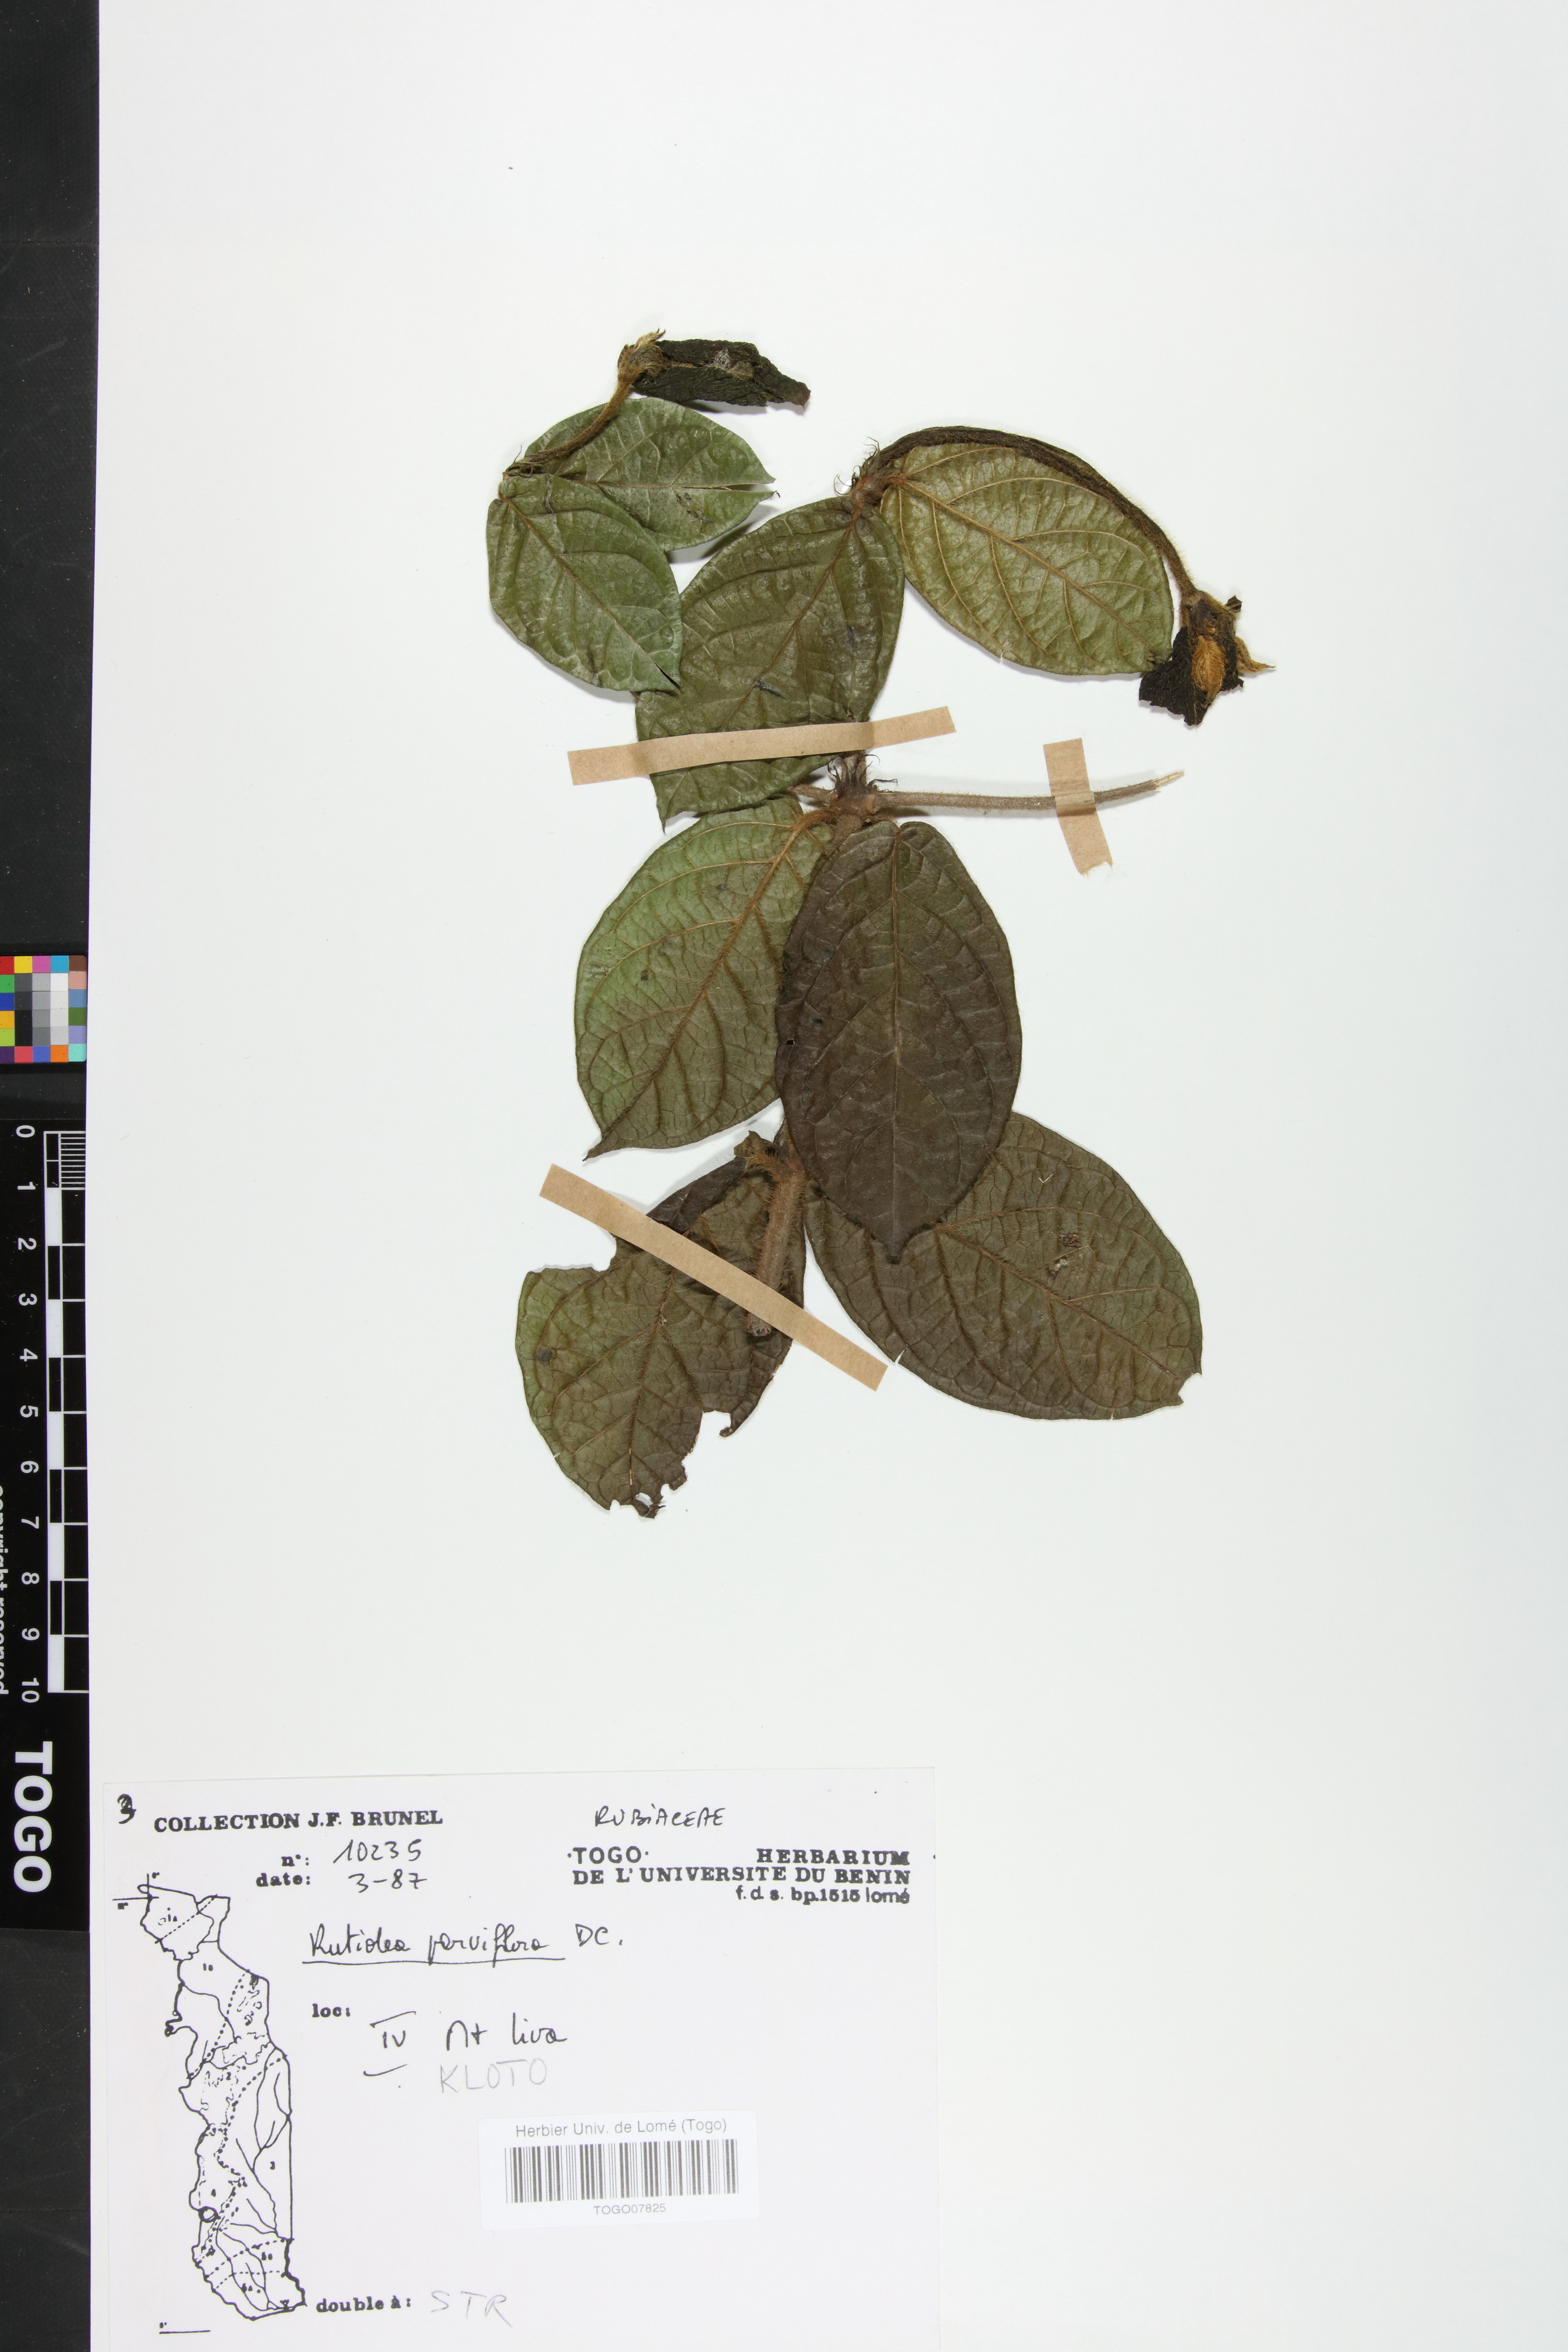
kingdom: Plantae
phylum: Tracheophyta
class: Magnoliopsida
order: Gentianales
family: Rubiaceae
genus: Rutidea
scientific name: Rutidea parviflora
